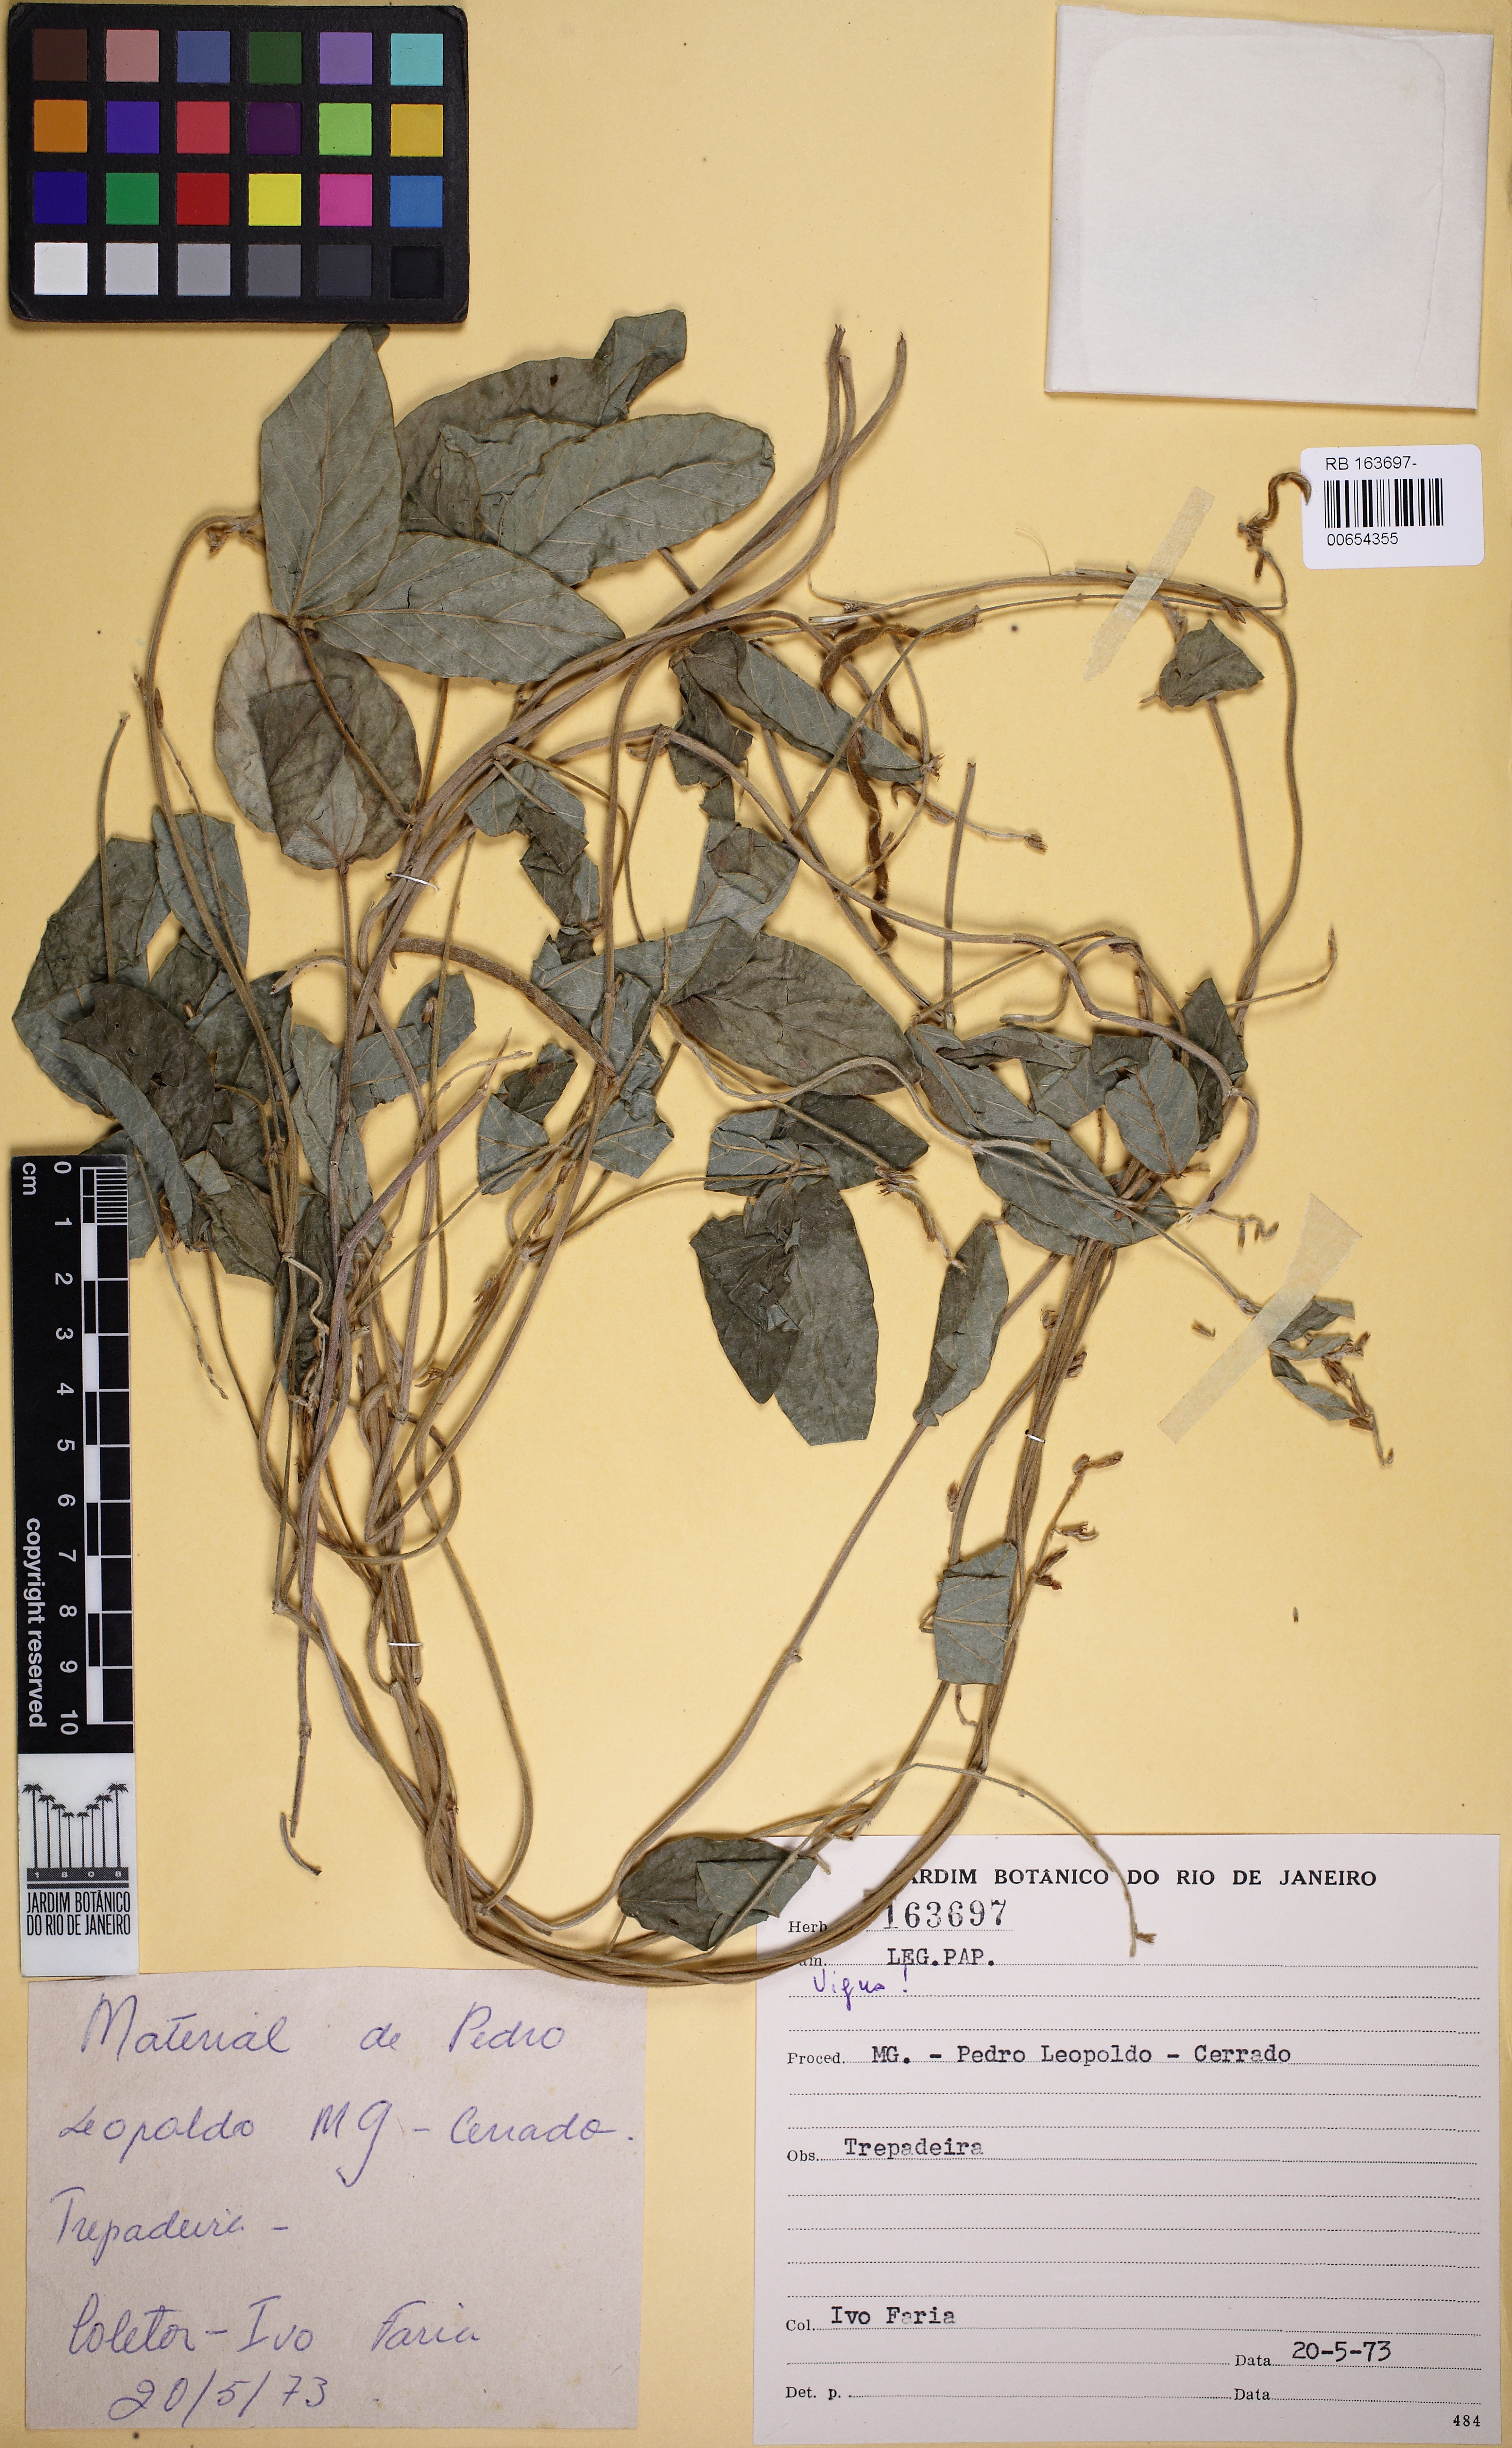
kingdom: Plantae
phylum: Tracheophyta
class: Magnoliopsida
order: Fabales
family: Fabaceae
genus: Vigna
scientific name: Vigna
